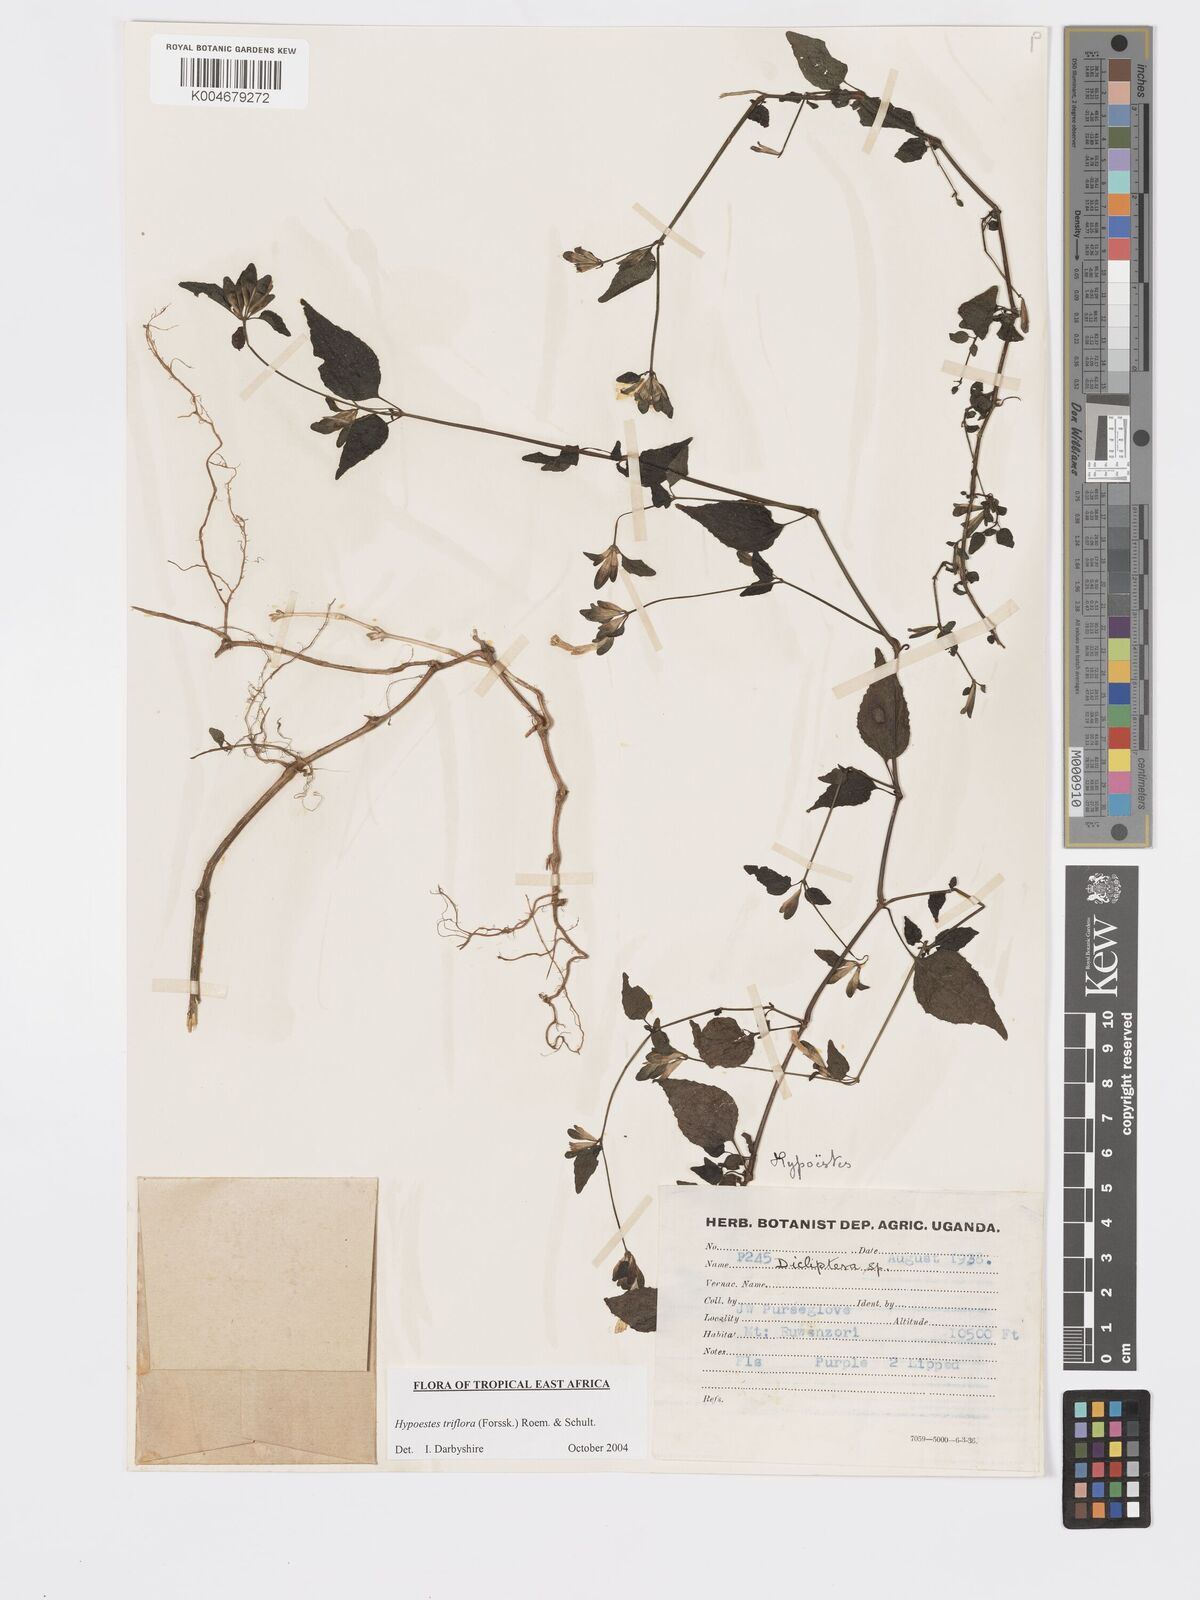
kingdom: Plantae
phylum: Tracheophyta
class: Magnoliopsida
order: Lamiales
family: Acanthaceae
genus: Hypoestes
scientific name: Hypoestes triflora
